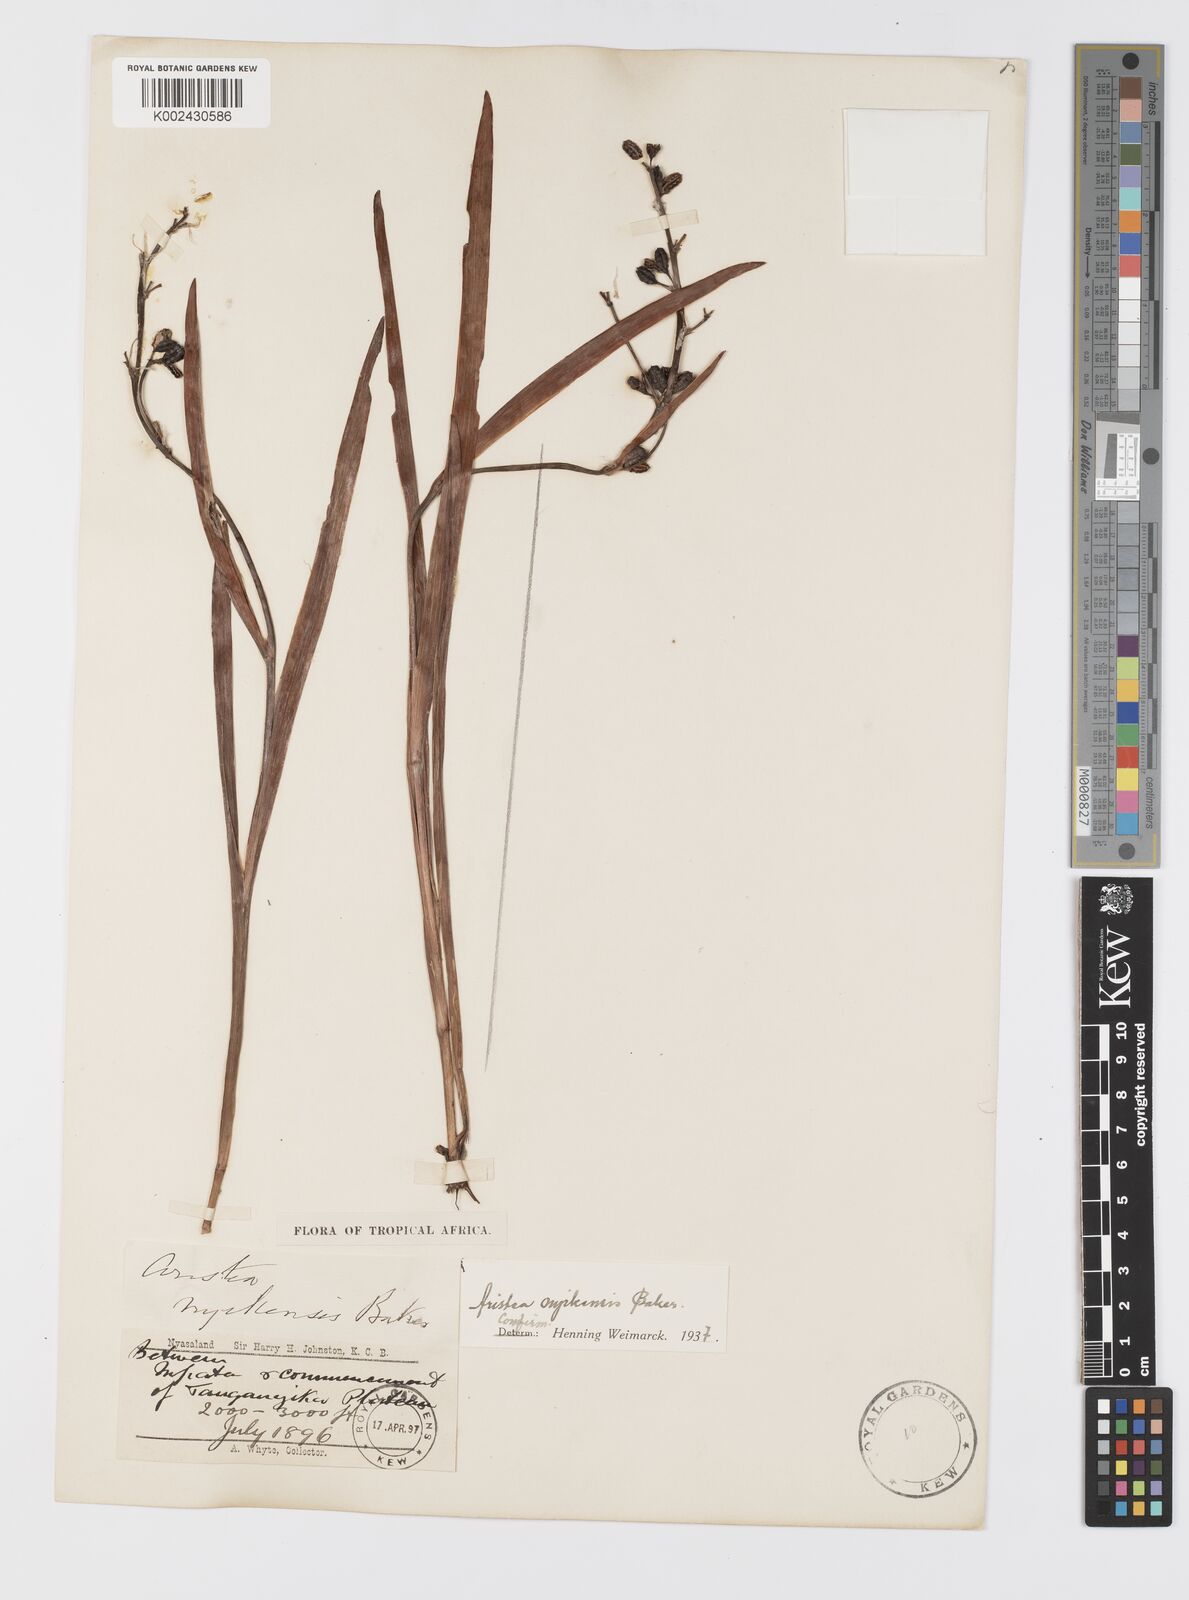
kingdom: Plantae
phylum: Tracheophyta
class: Liliopsida
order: Asparagales
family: Iridaceae
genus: Aristea
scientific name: Aristea nyikensis
